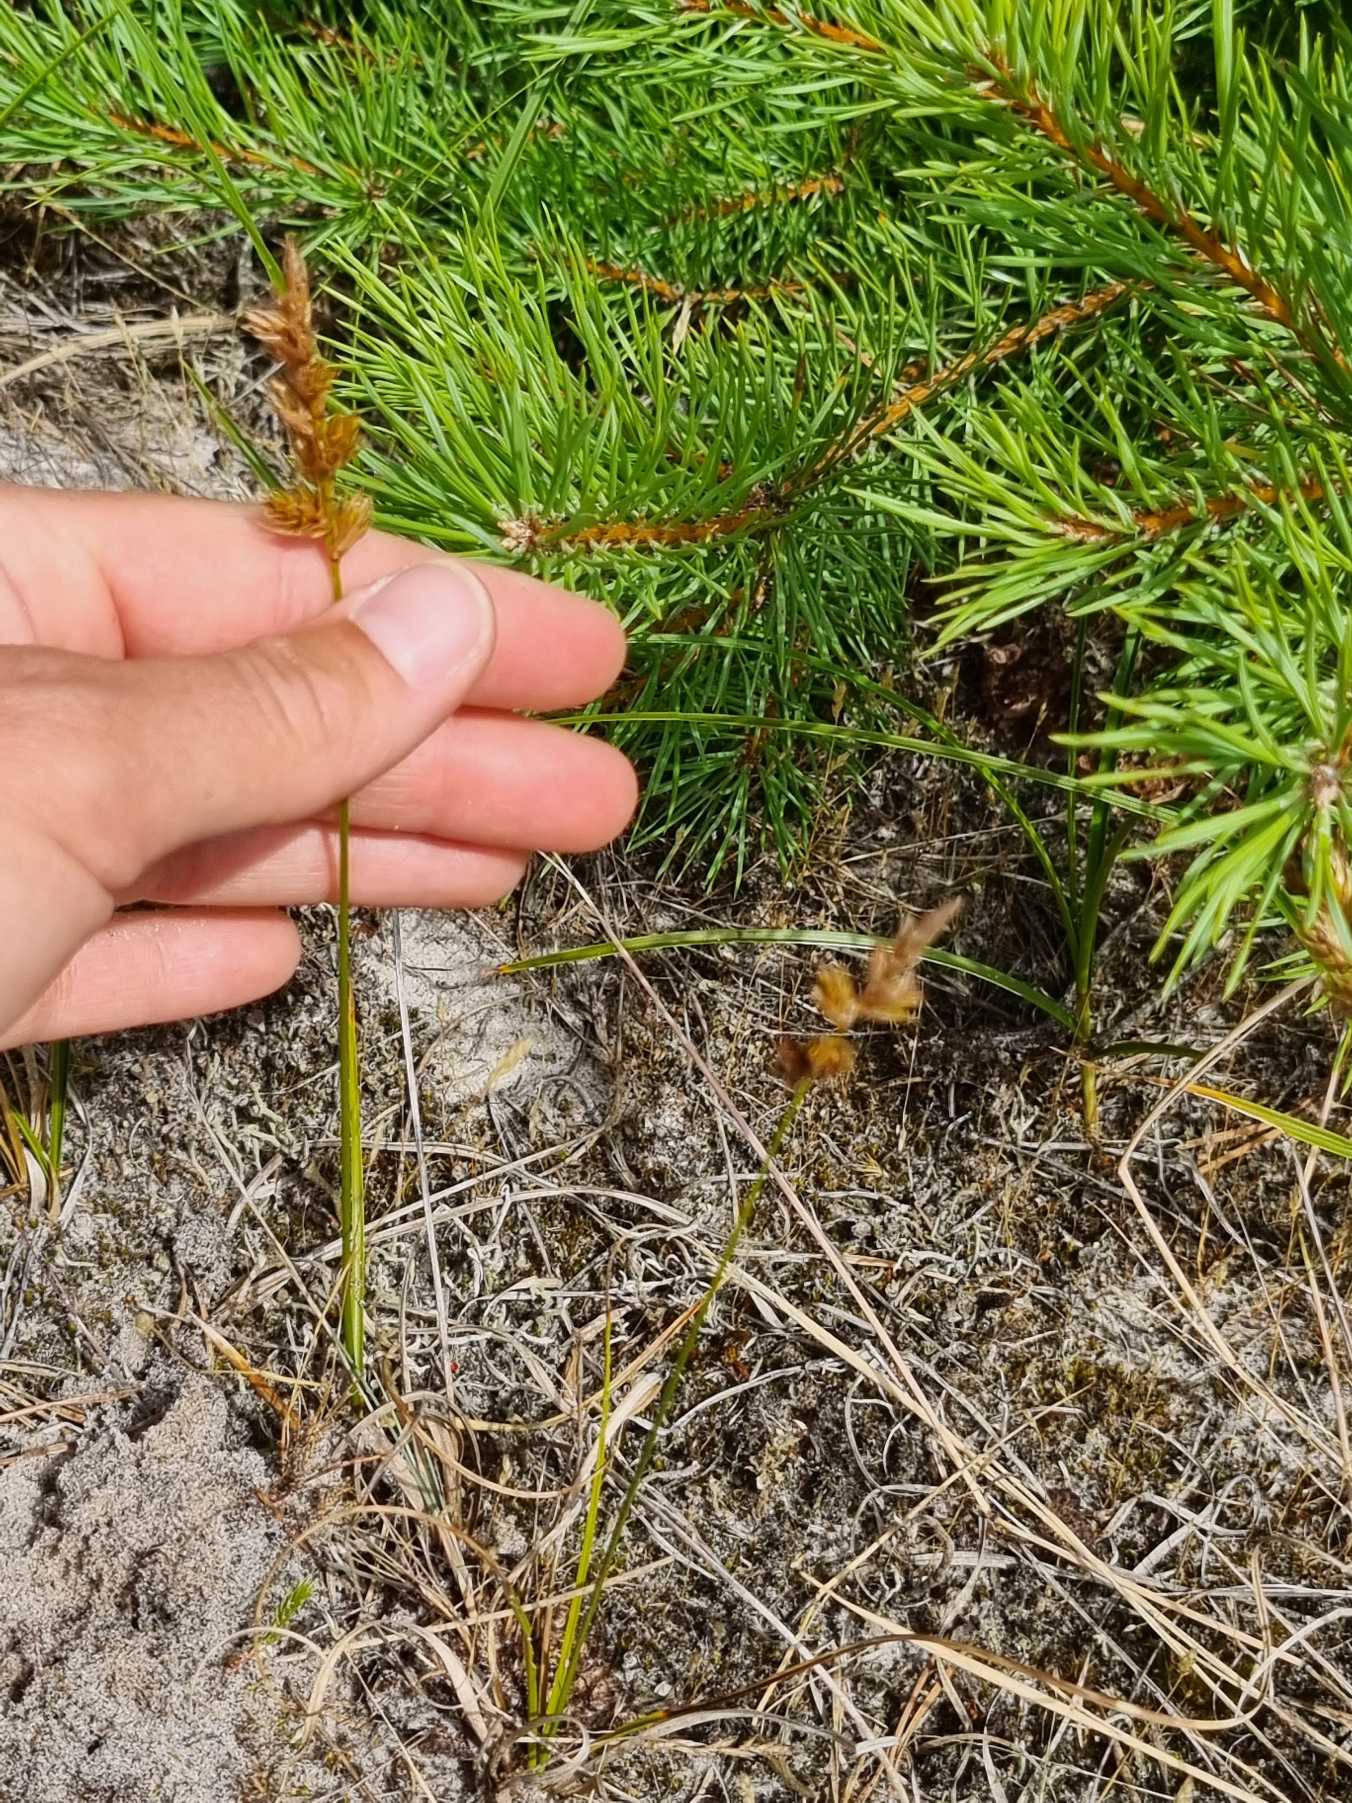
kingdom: Plantae
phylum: Tracheophyta
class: Liliopsida
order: Poales
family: Cyperaceae
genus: Carex
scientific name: Carex arenaria
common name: Sand-star
